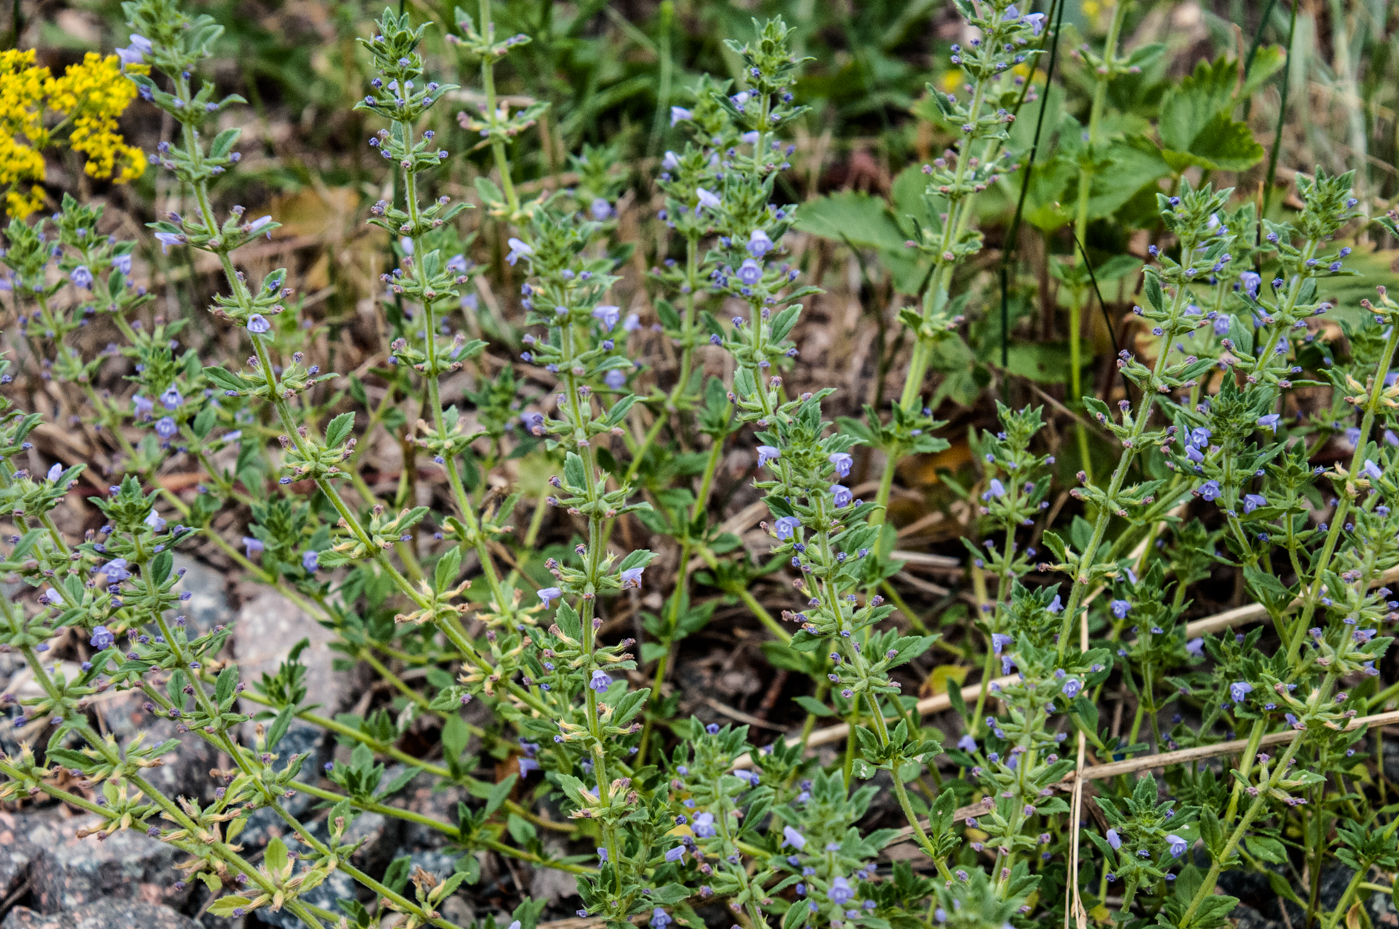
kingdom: Plantae
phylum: Tracheophyta
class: Magnoliopsida
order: Lamiales
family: Lamiaceae
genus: Clinopodium
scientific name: Clinopodium acinos
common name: Basil thyme
